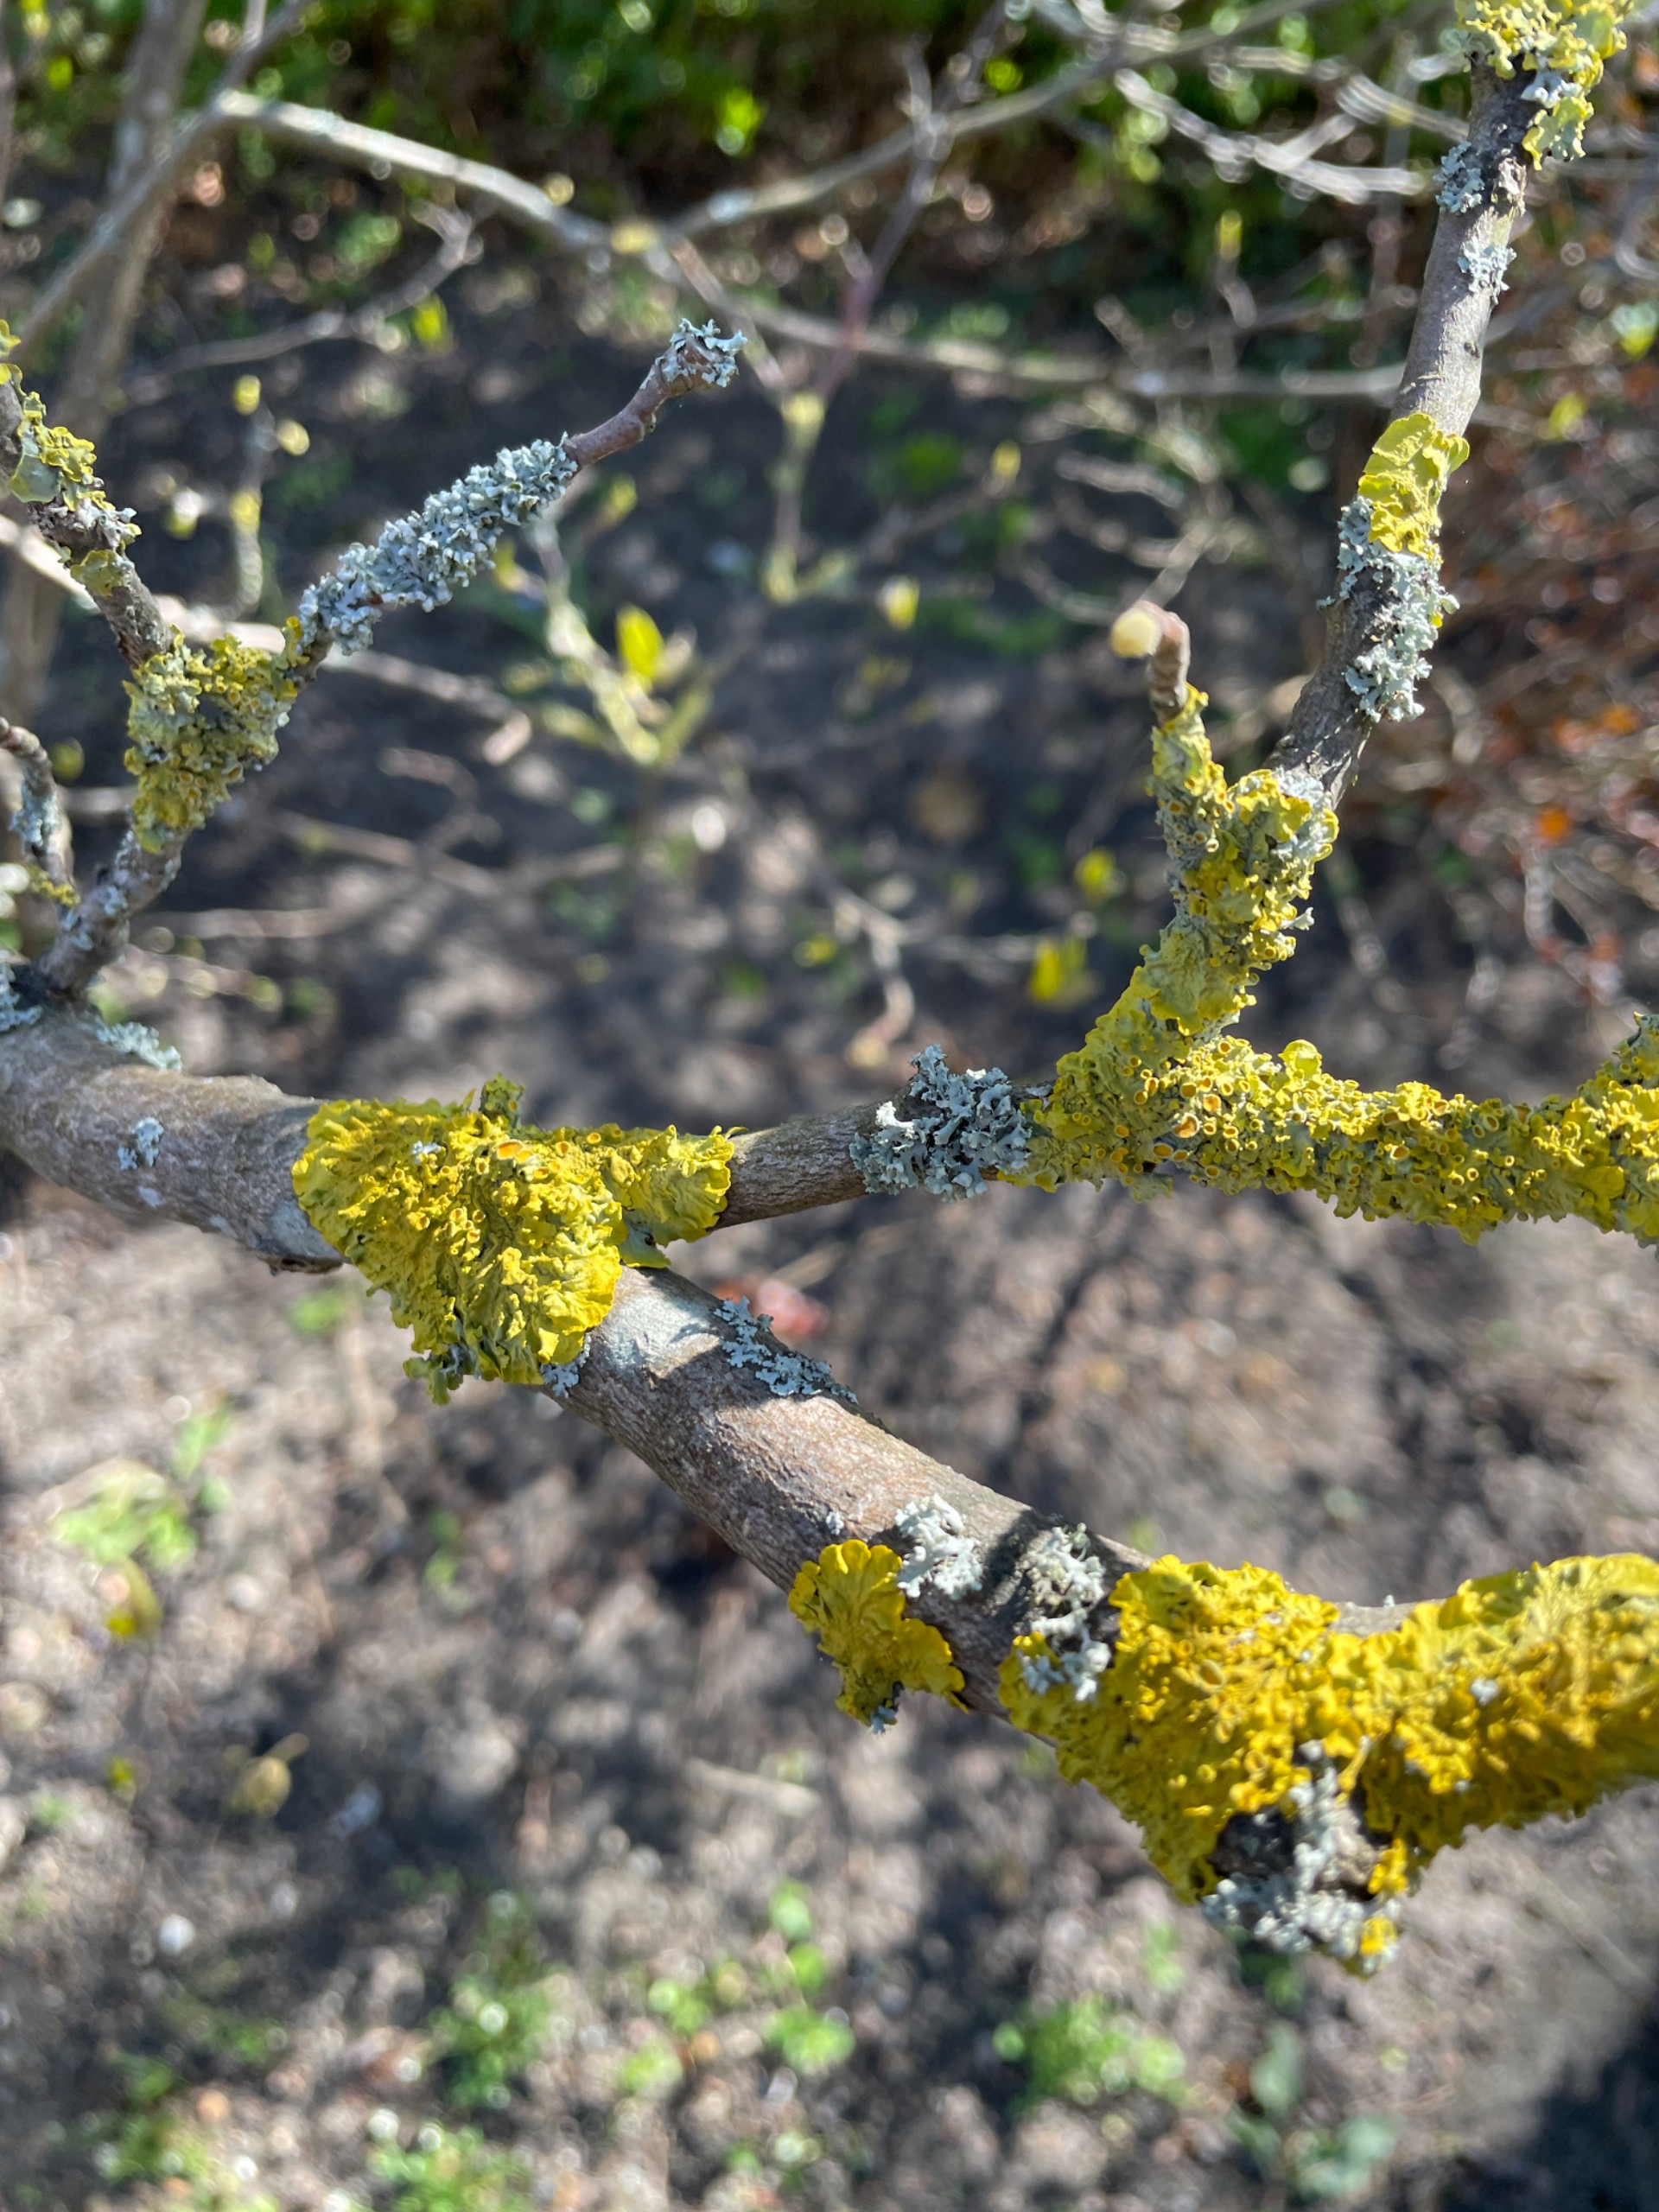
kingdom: Fungi
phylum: Ascomycota
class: Lecanoromycetes
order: Teloschistales
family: Teloschistaceae
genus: Xanthoria
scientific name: Xanthoria parietina
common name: Almindelig væggelav
